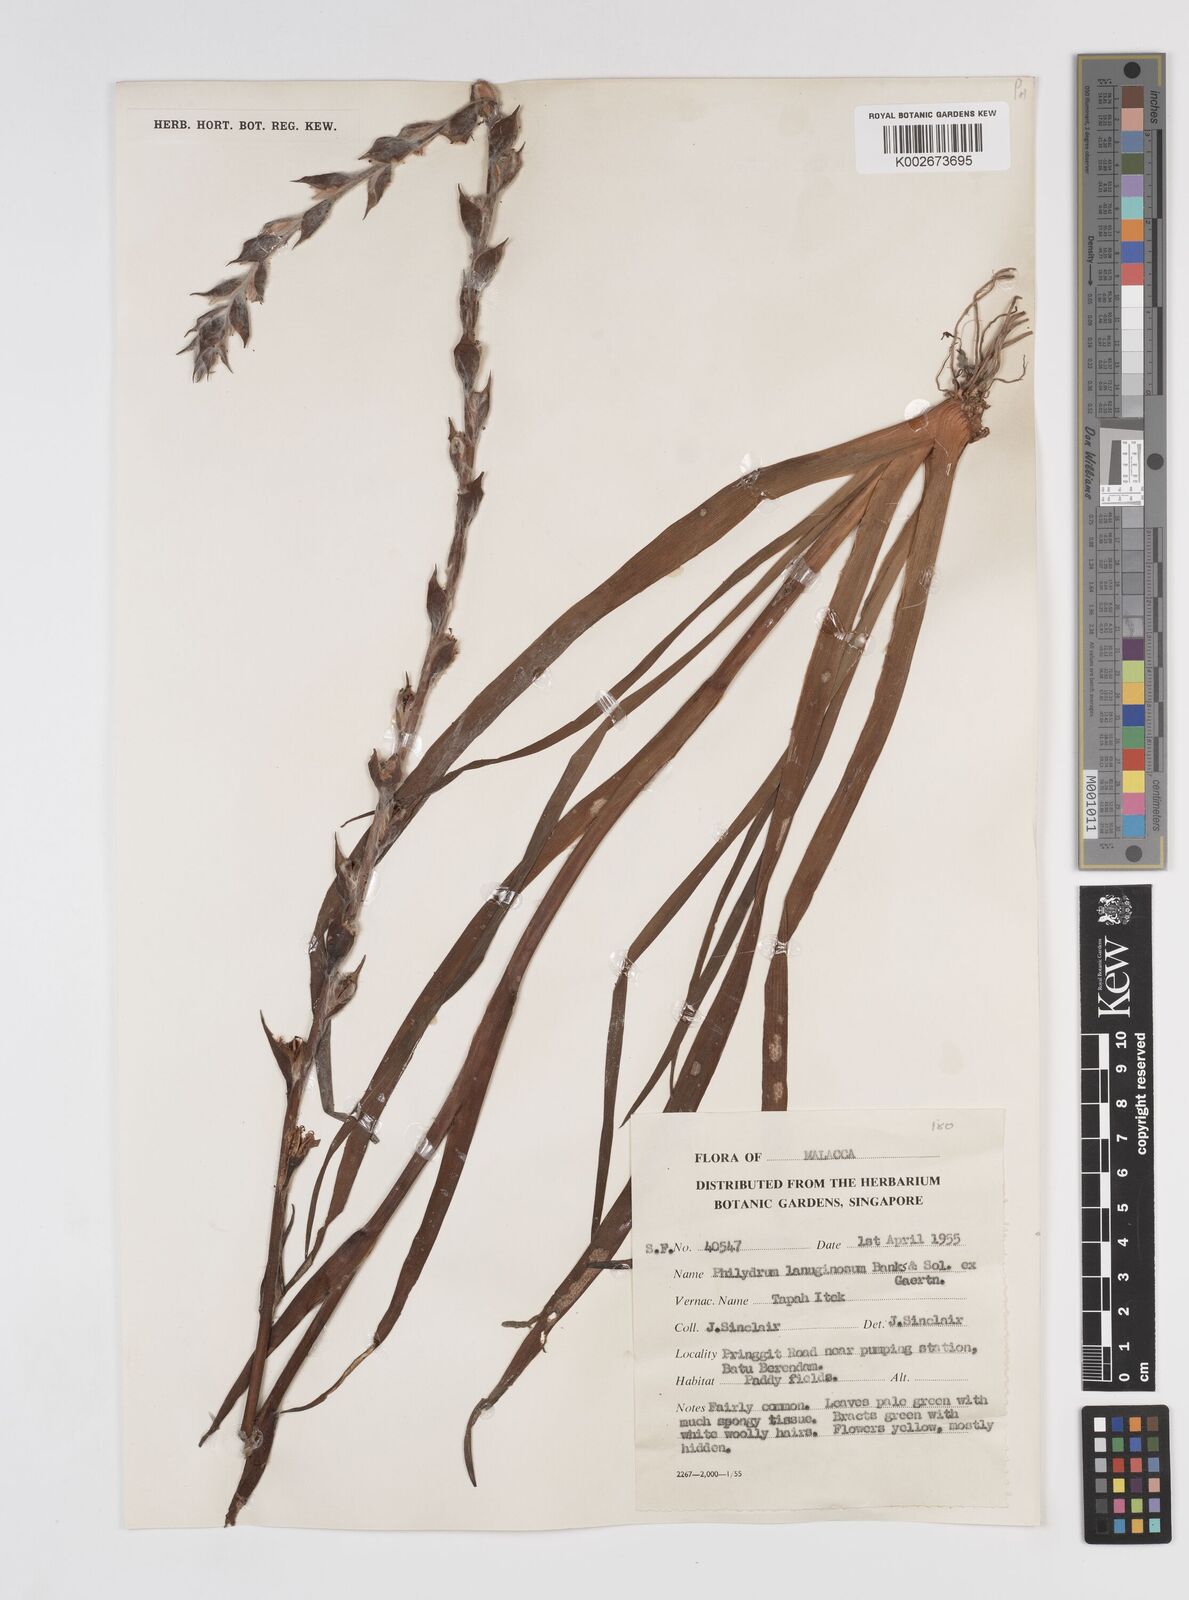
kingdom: Plantae
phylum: Tracheophyta
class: Liliopsida
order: Commelinales
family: Philydraceae
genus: Philydrum
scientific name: Philydrum lanuginosum
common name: Woolly frog's mouth
